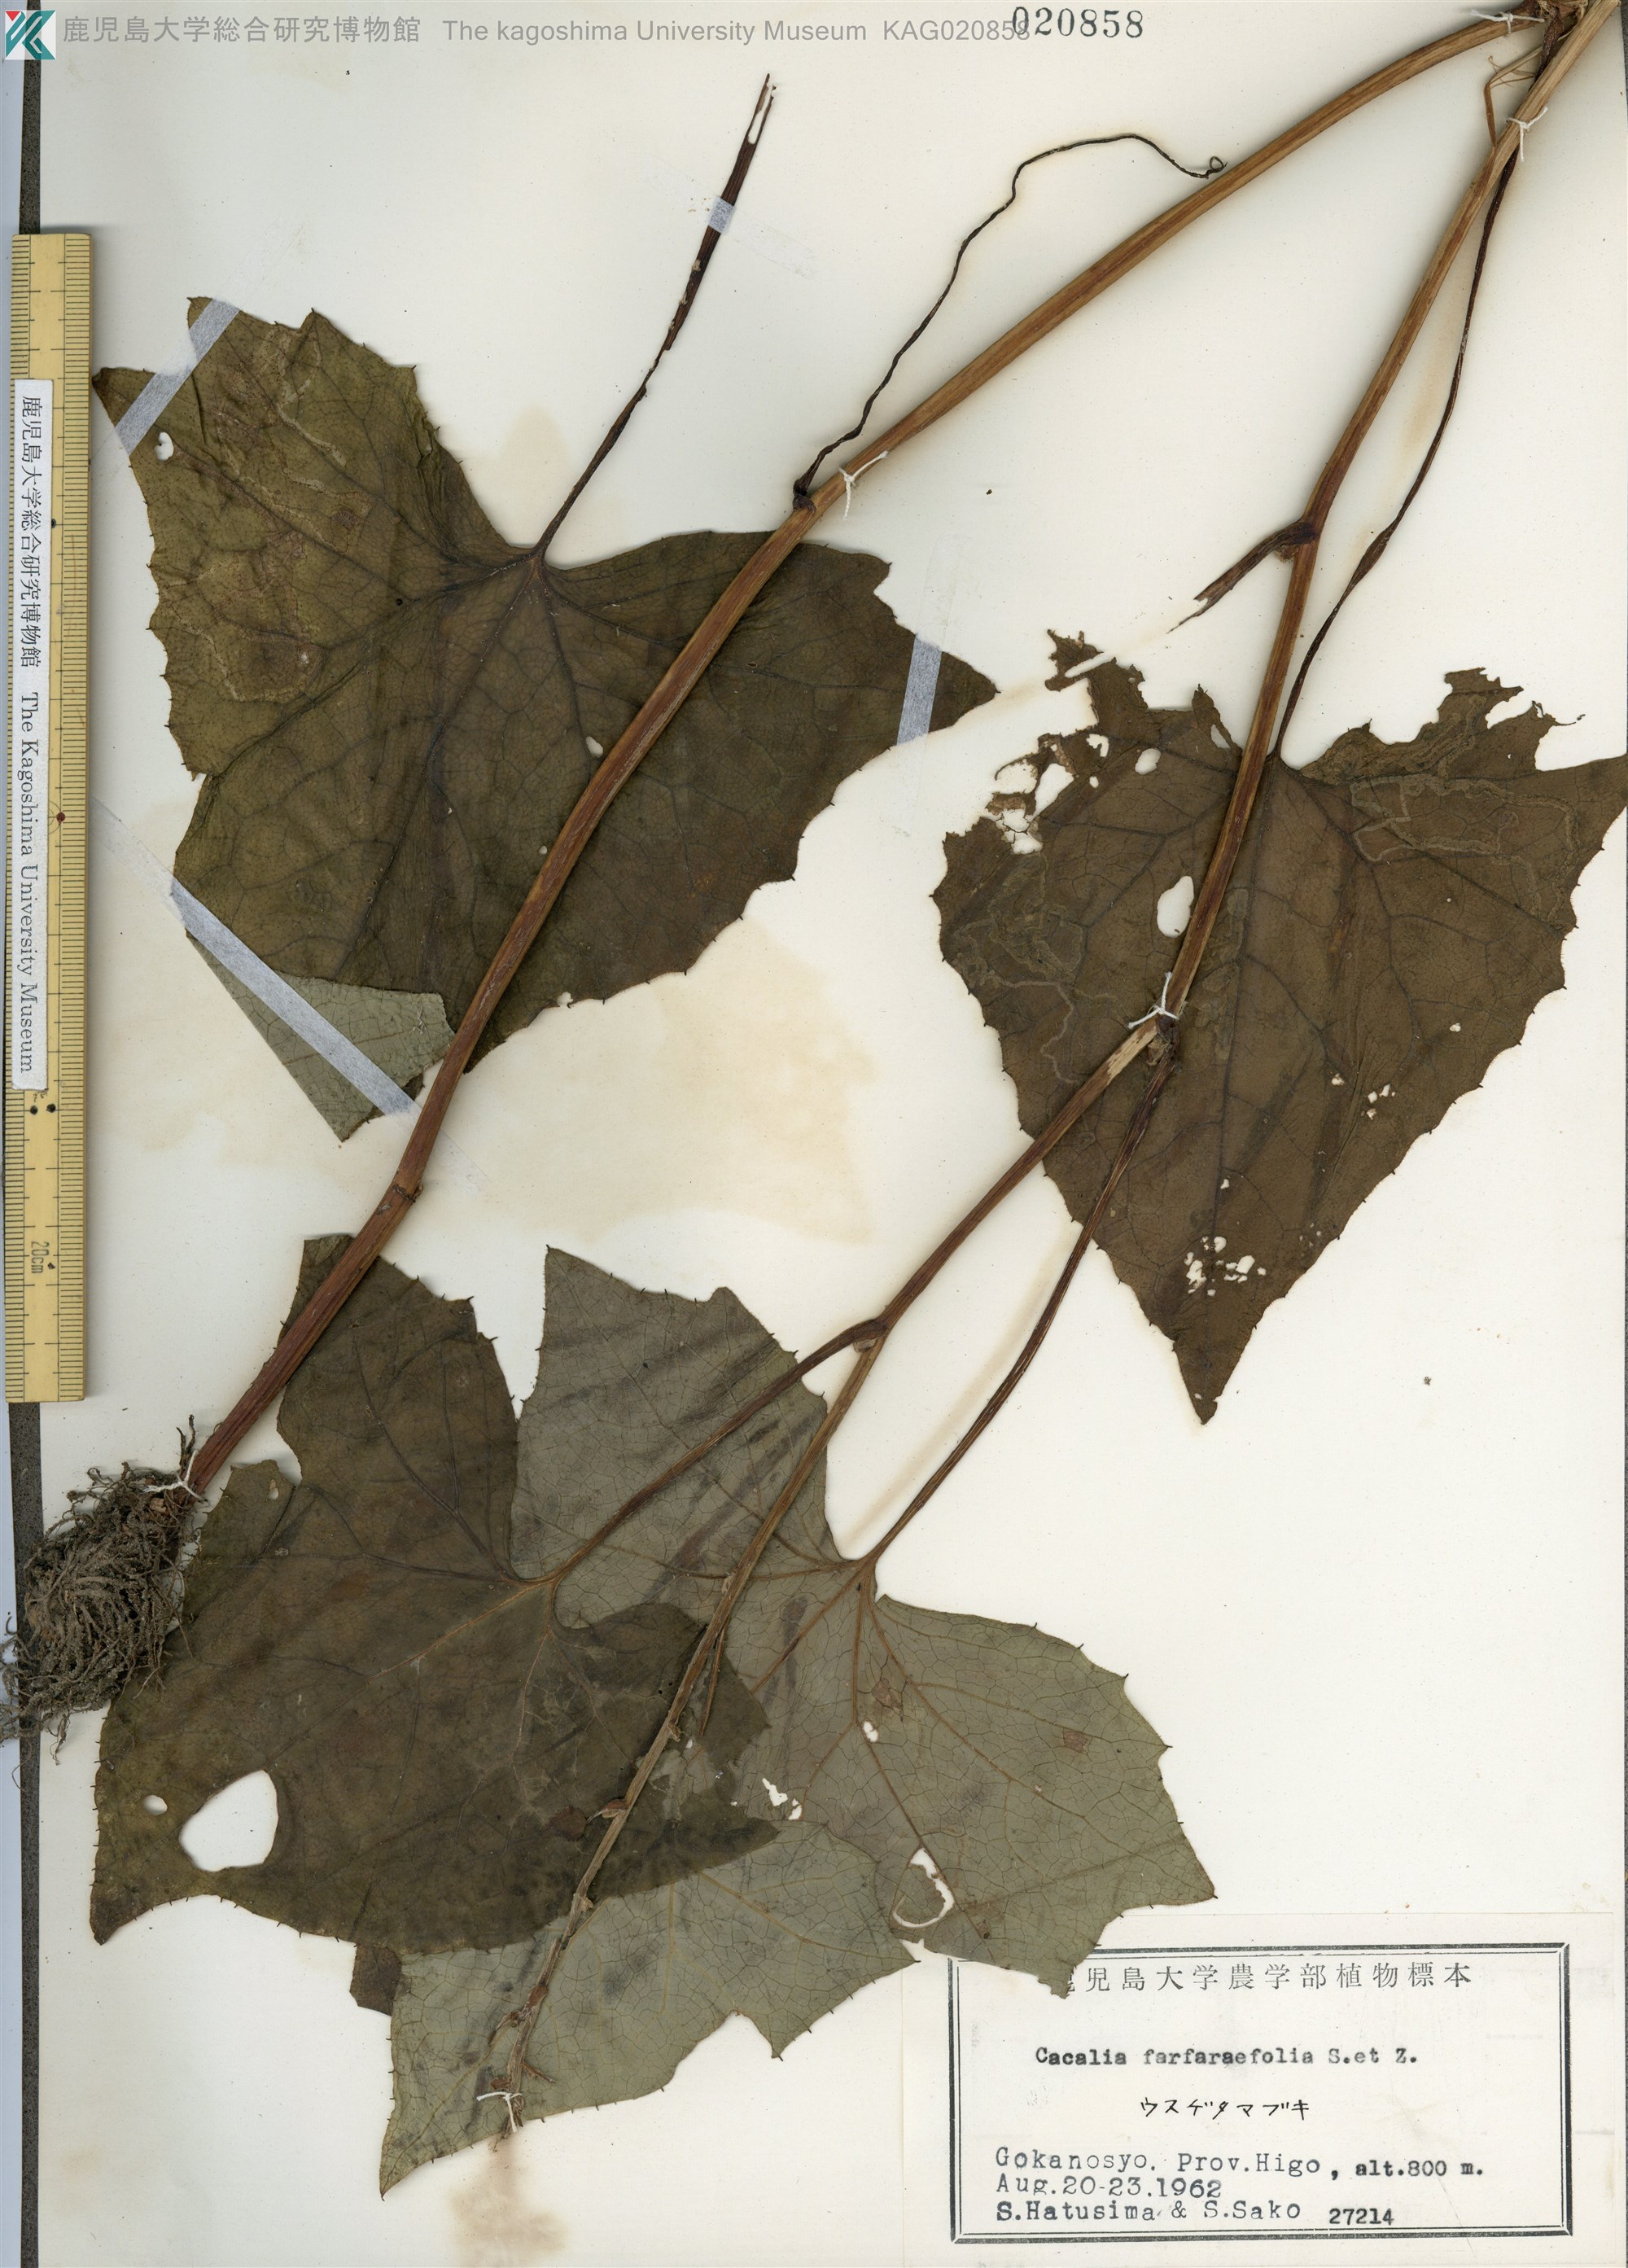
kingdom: Plantae
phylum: Tracheophyta
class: Magnoliopsida
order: Asterales
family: Asteraceae
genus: Parasenecio
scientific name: Parasenecio farfarifolius
